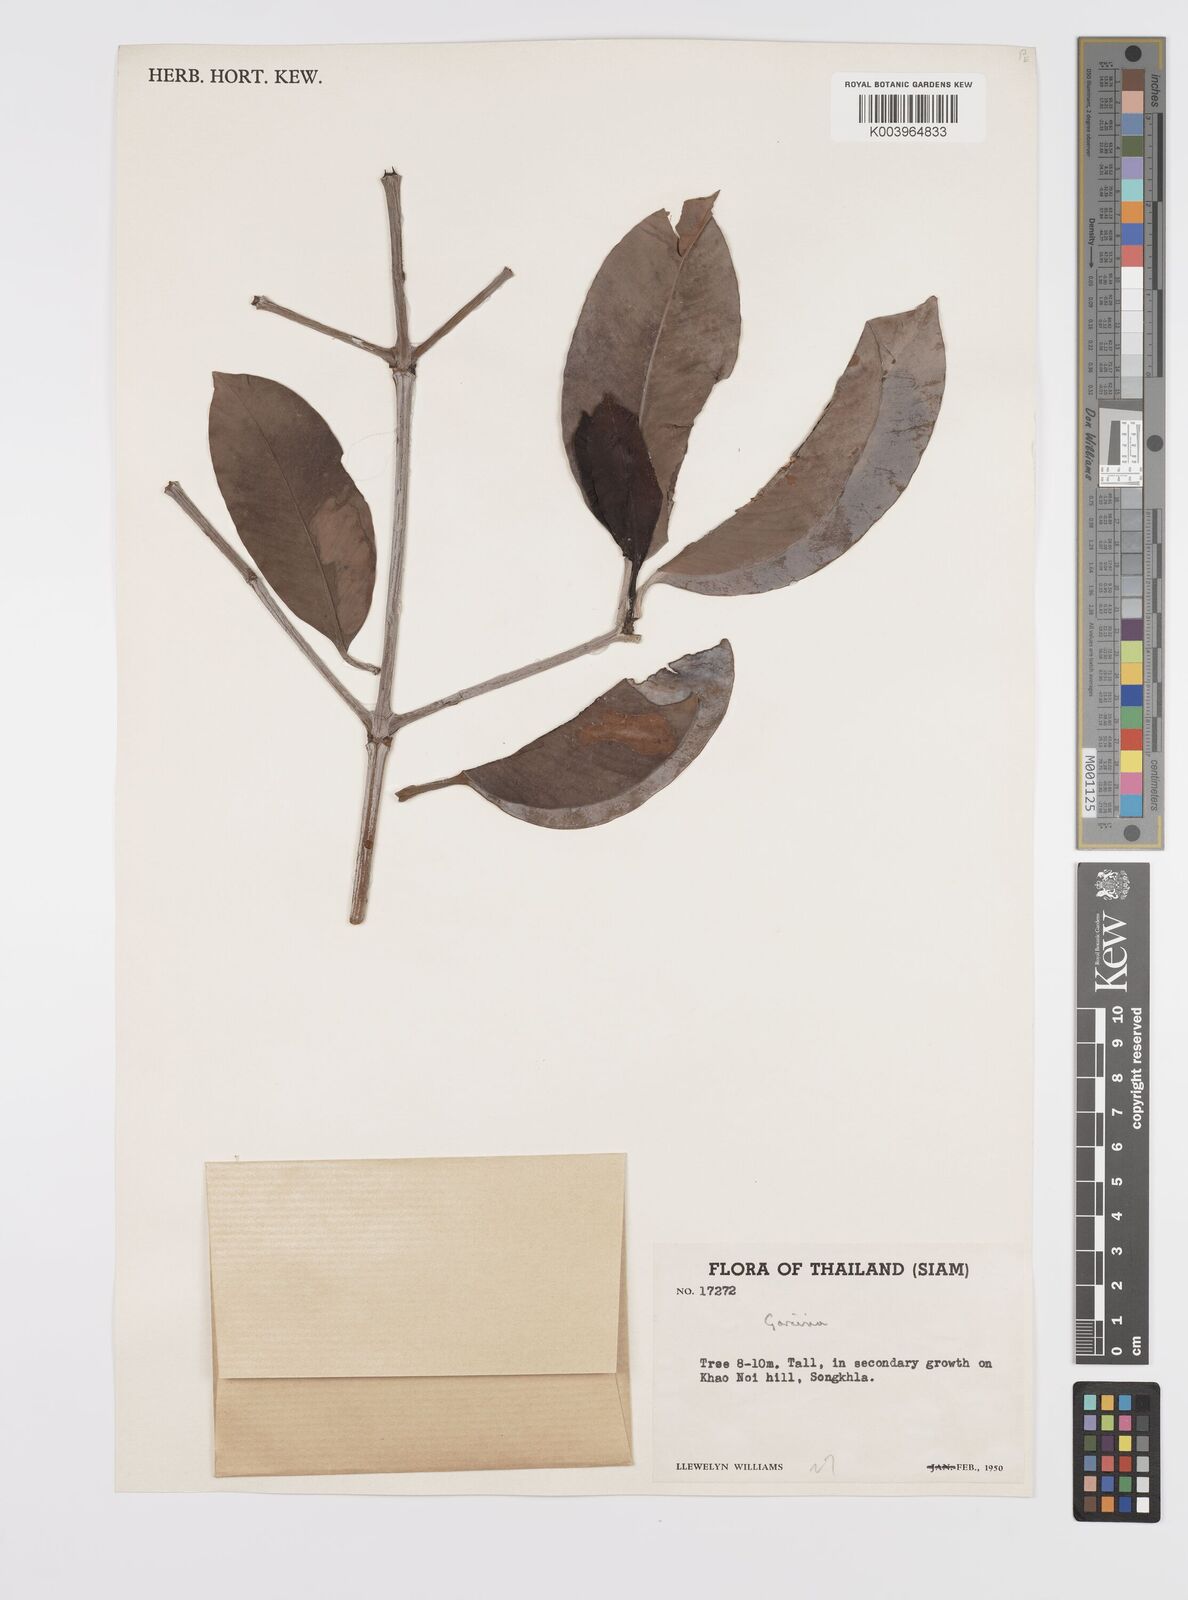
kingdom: Plantae
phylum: Tracheophyta
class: Magnoliopsida
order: Malpighiales
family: Clusiaceae
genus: Garcinia
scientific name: Garcinia
